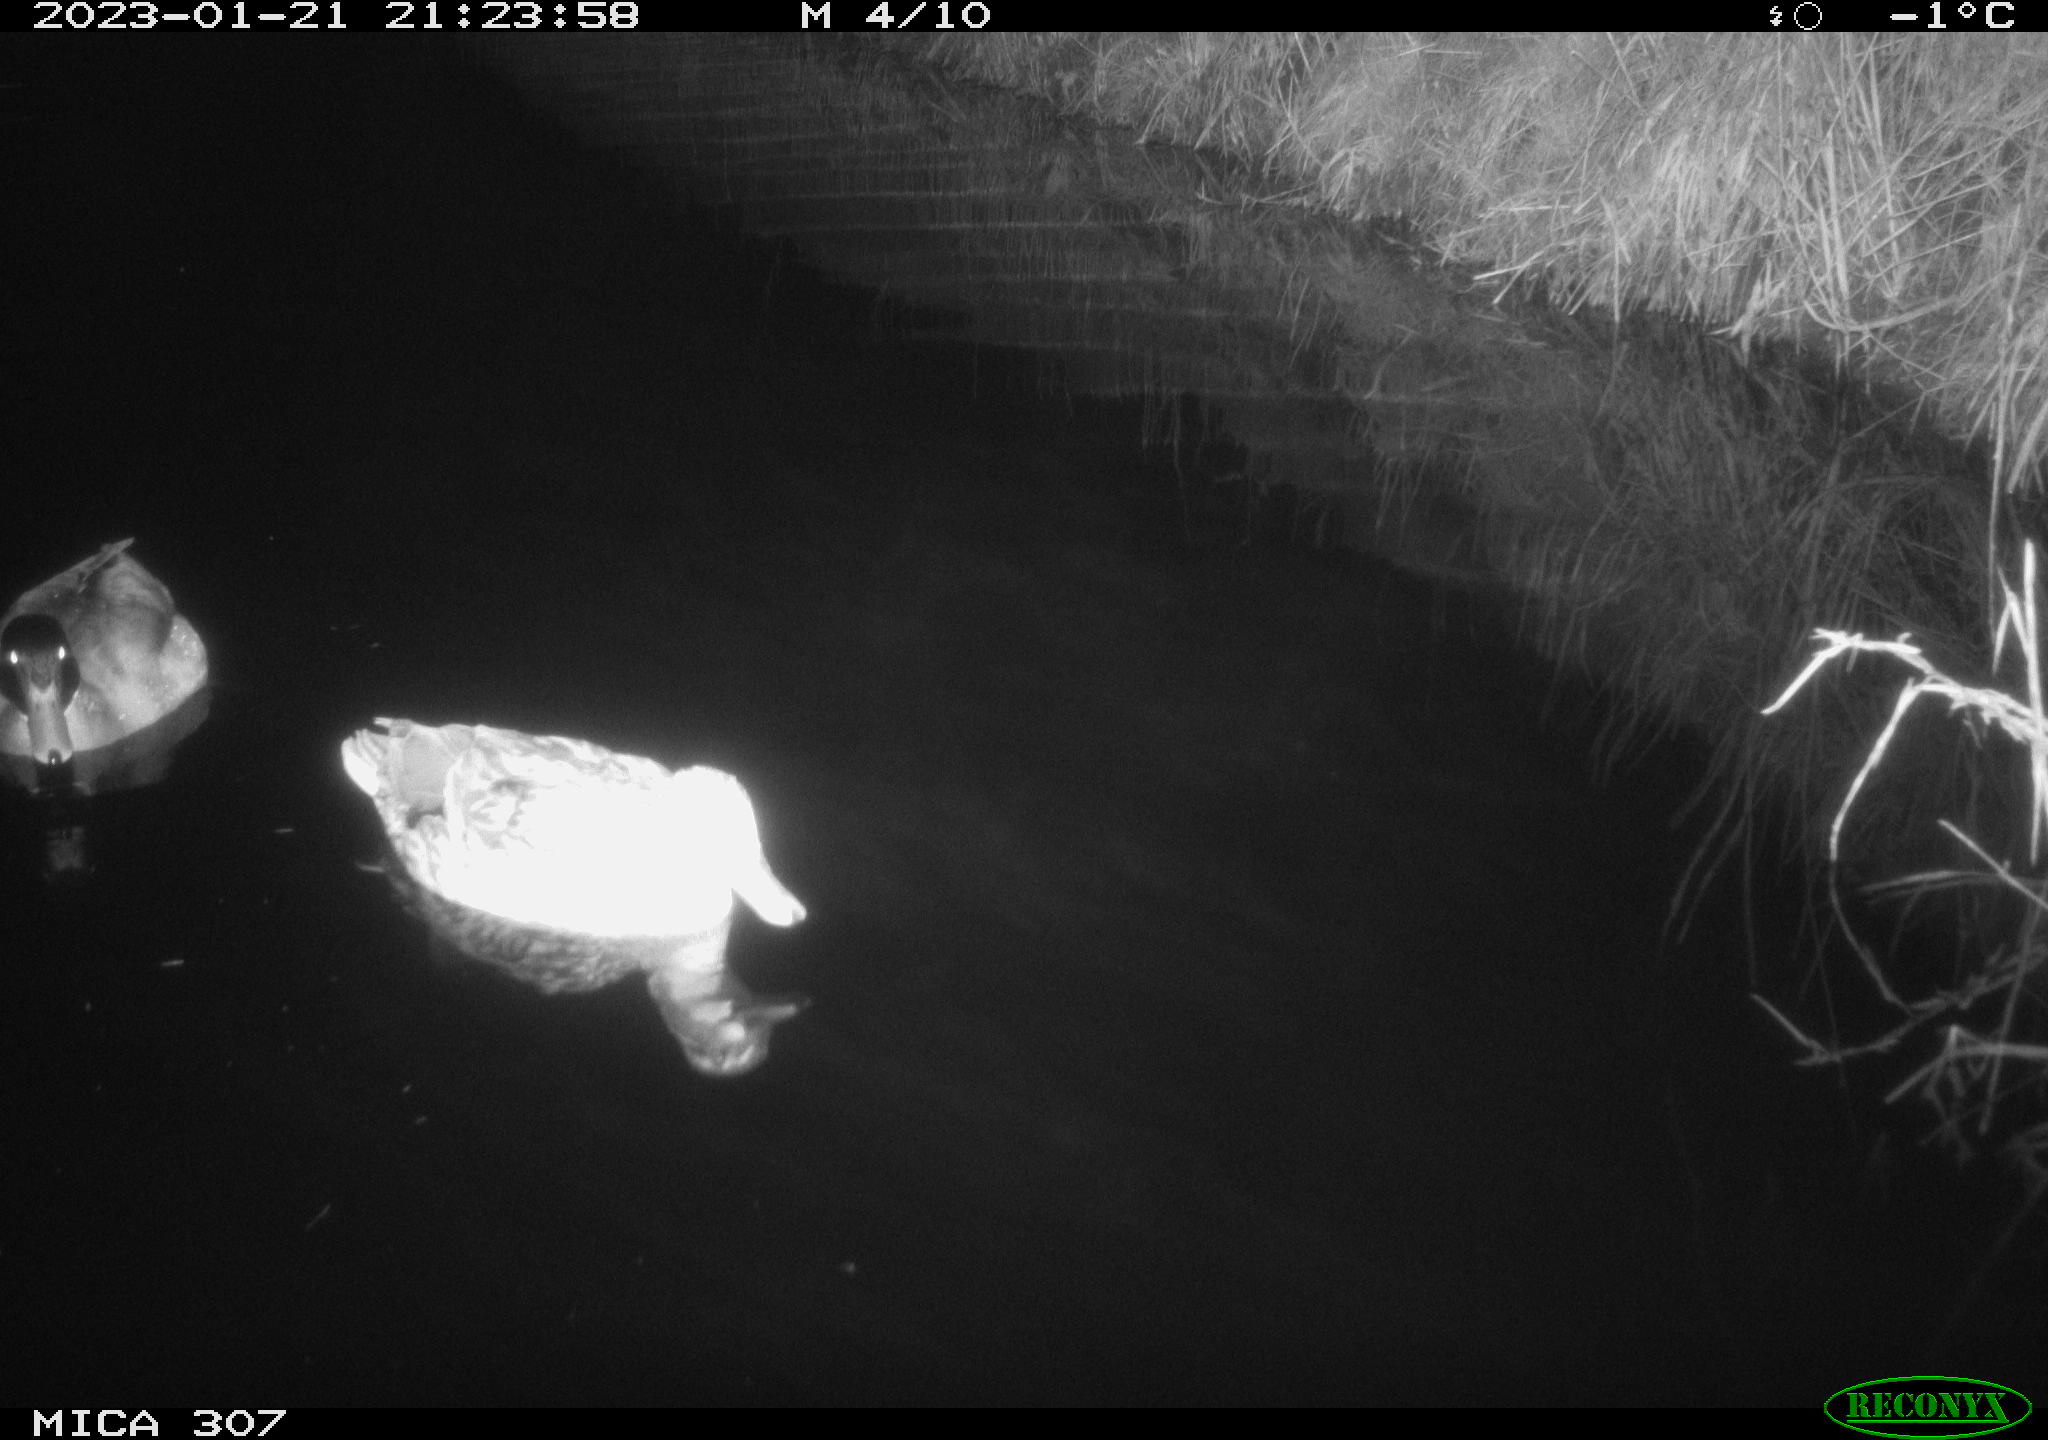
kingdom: Animalia
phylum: Chordata
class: Aves
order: Anseriformes
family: Anatidae
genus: Anas
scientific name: Anas
